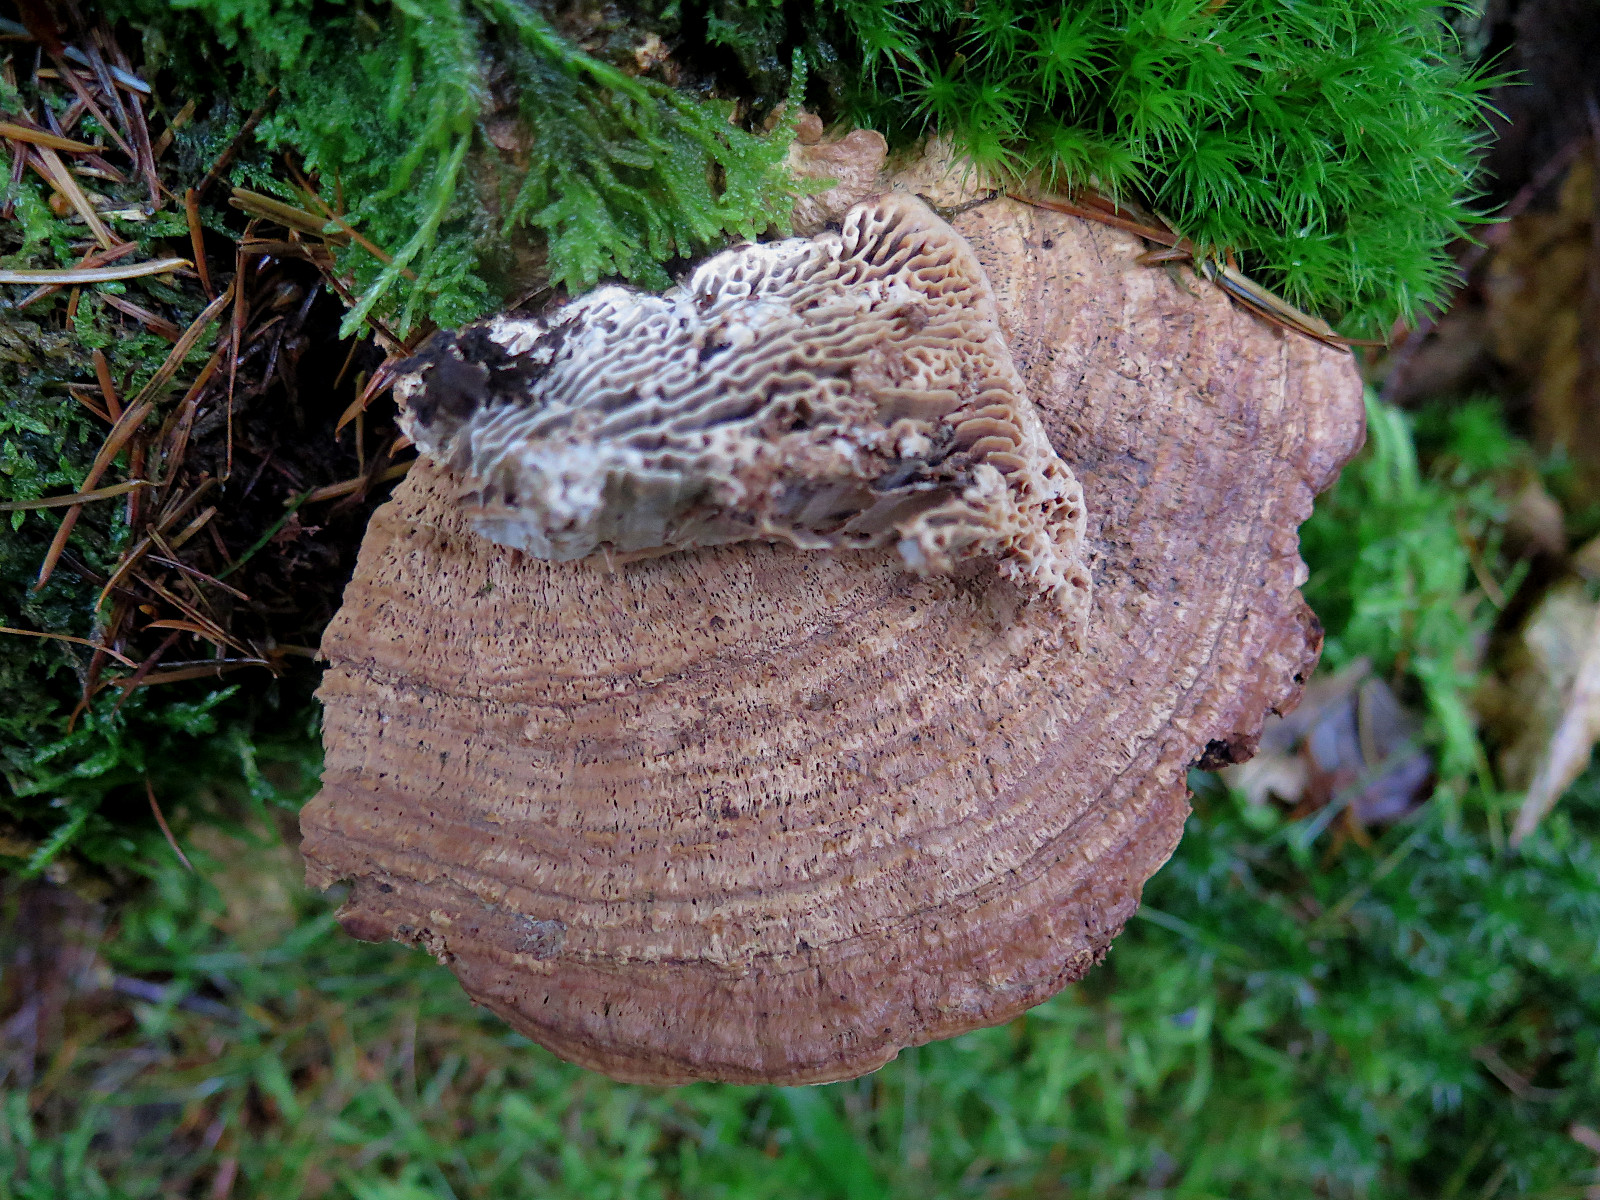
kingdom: Fungi
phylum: Basidiomycota
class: Agaricomycetes
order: Polyporales
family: Fomitopsidaceae
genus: Daedalea
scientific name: Daedalea quercina
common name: ege-labyrintsvamp
